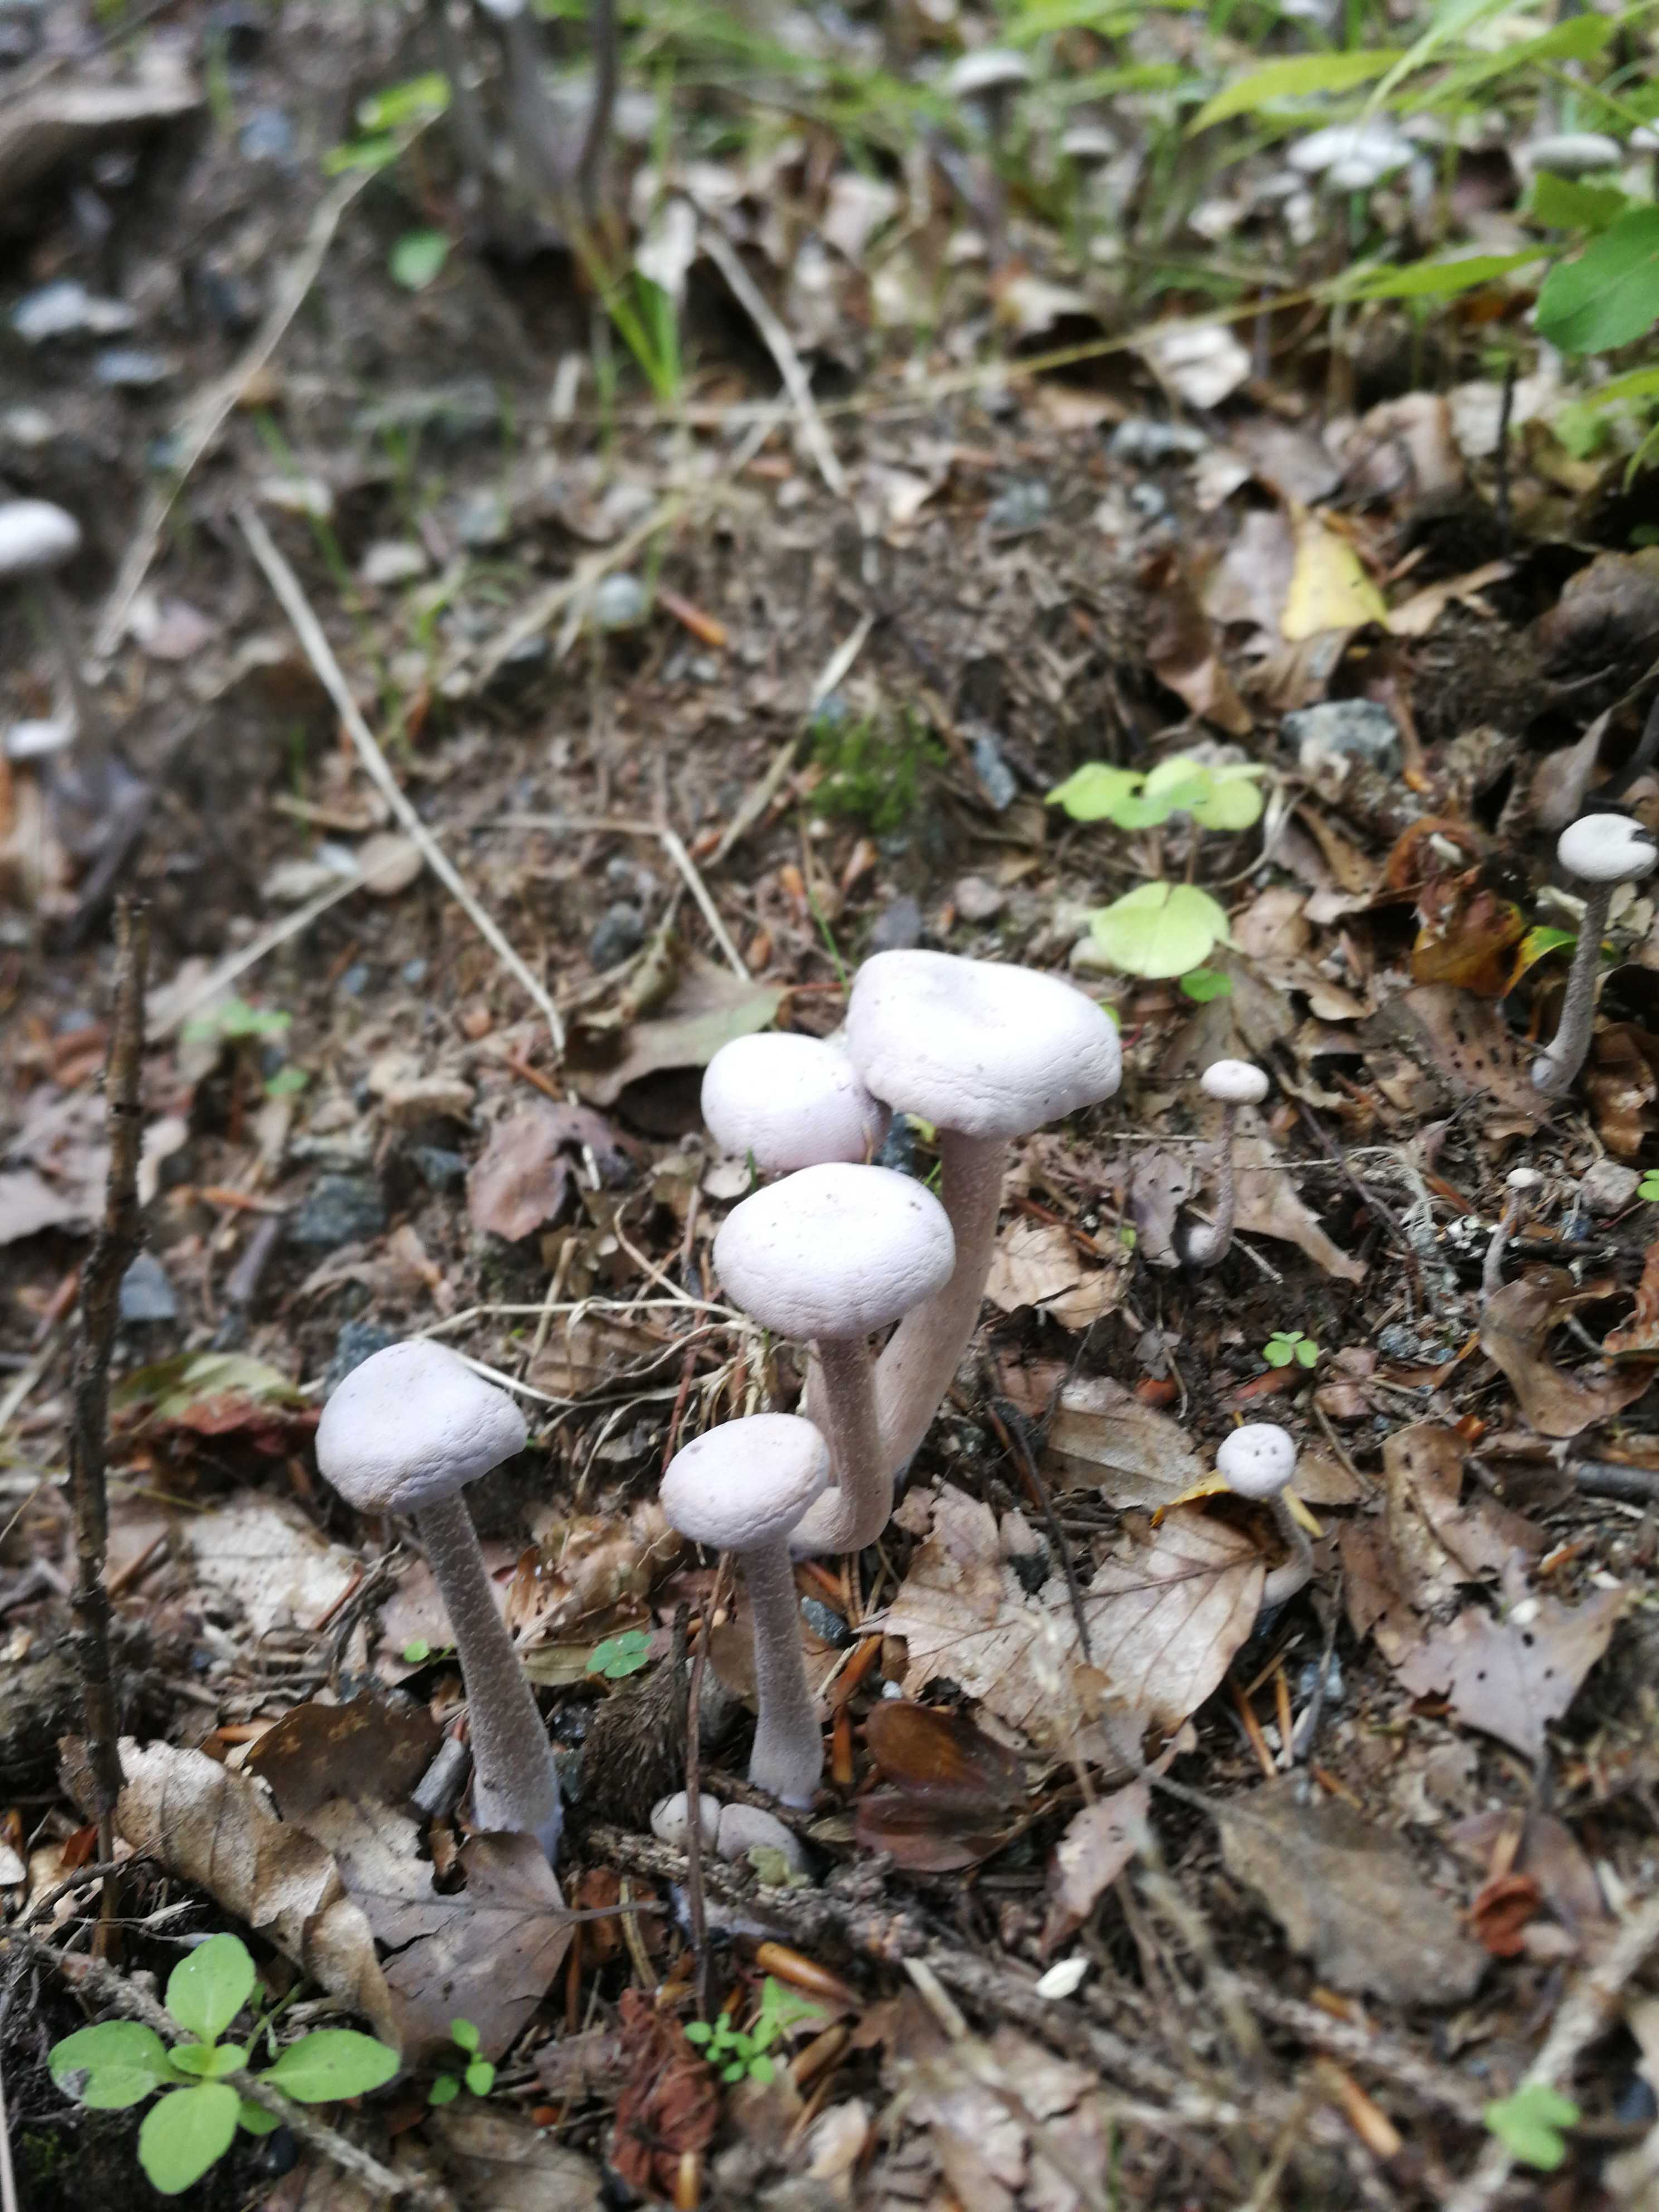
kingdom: Fungi
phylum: Basidiomycota
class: Agaricomycetes
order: Agaricales
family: Hydnangiaceae
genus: Laccaria
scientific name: Laccaria amethystina
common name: violet ametysthat
